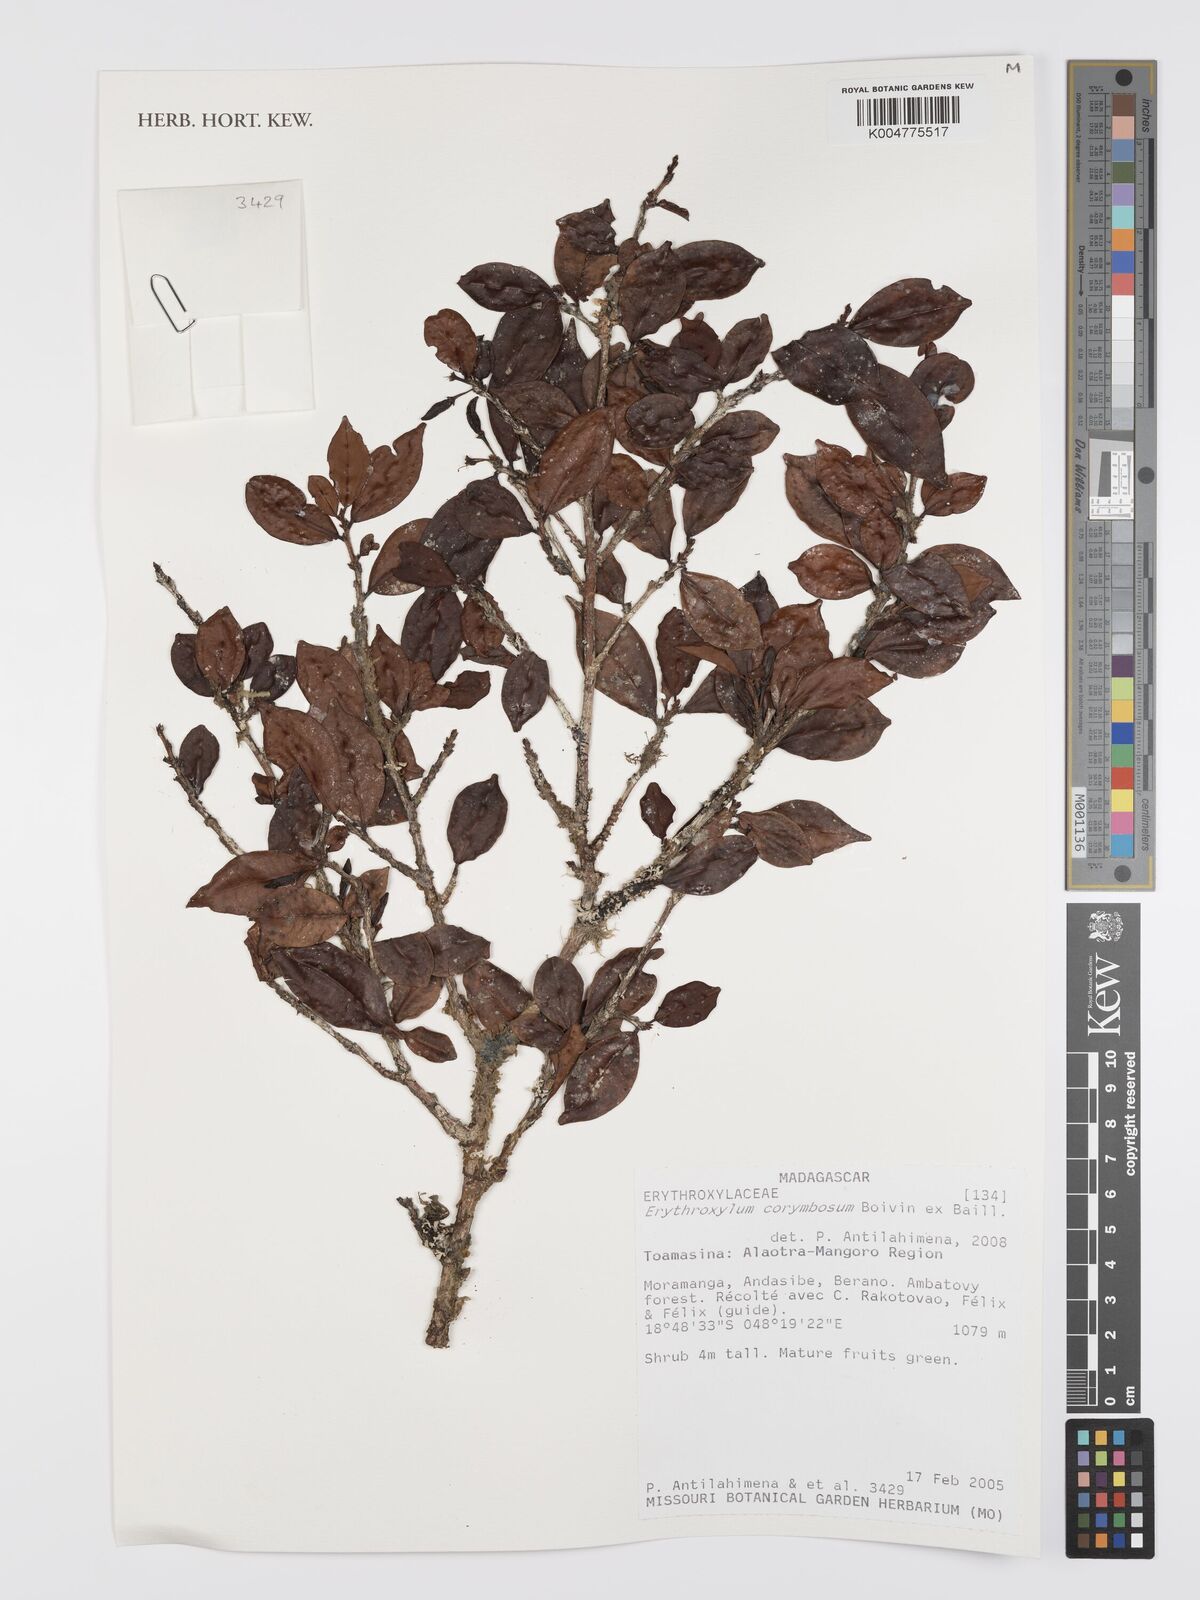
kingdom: Plantae
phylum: Tracheophyta
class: Magnoliopsida
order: Malpighiales
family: Erythroxylaceae
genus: Erythroxylum
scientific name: Erythroxylum corymbosum
